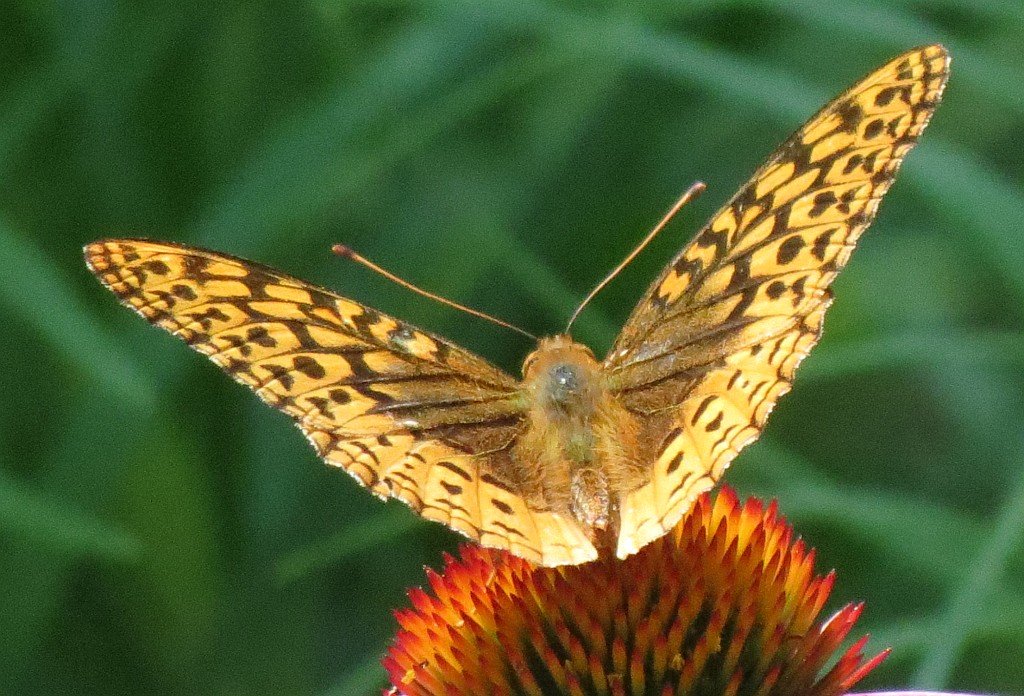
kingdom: Animalia
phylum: Arthropoda
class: Insecta
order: Lepidoptera
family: Nymphalidae
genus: Speyeria
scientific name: Speyeria cybele
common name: Great Spangled Fritillary
